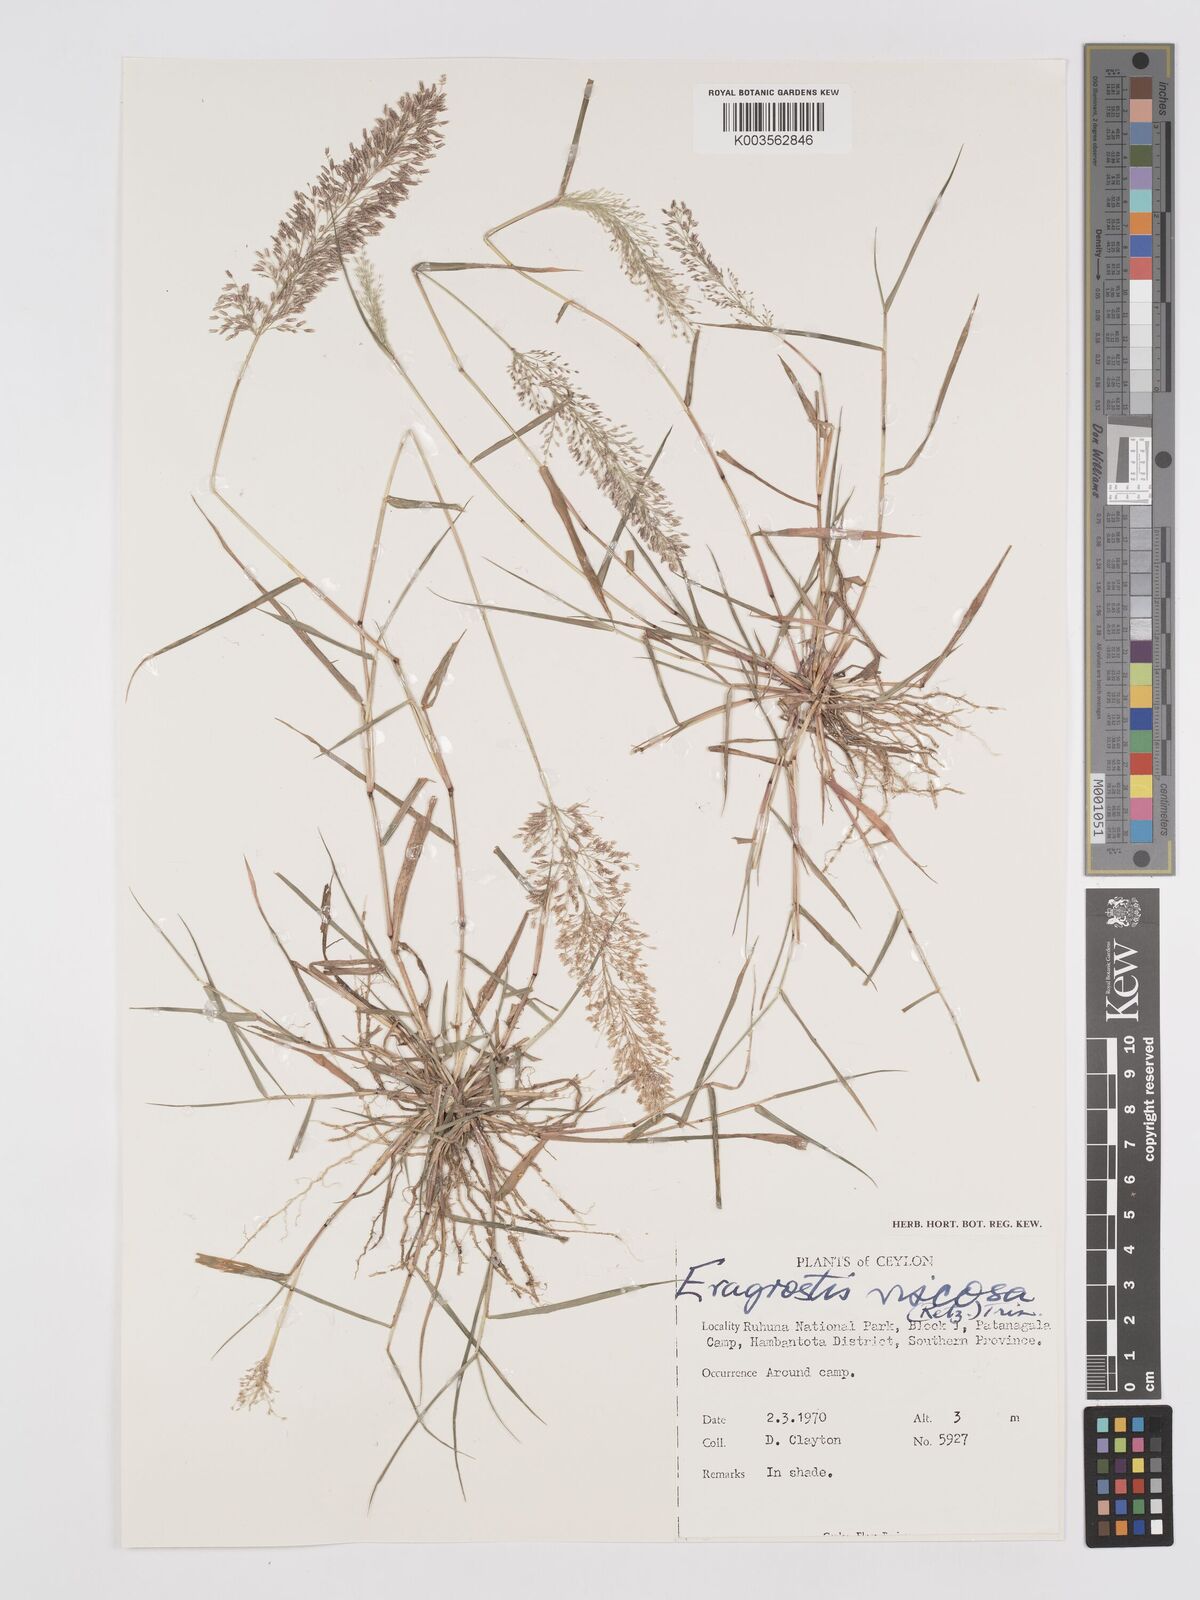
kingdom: Plantae
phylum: Tracheophyta
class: Liliopsida
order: Poales
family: Poaceae
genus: Eragrostis
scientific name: Eragrostis viscosa
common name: Sticky love grass
